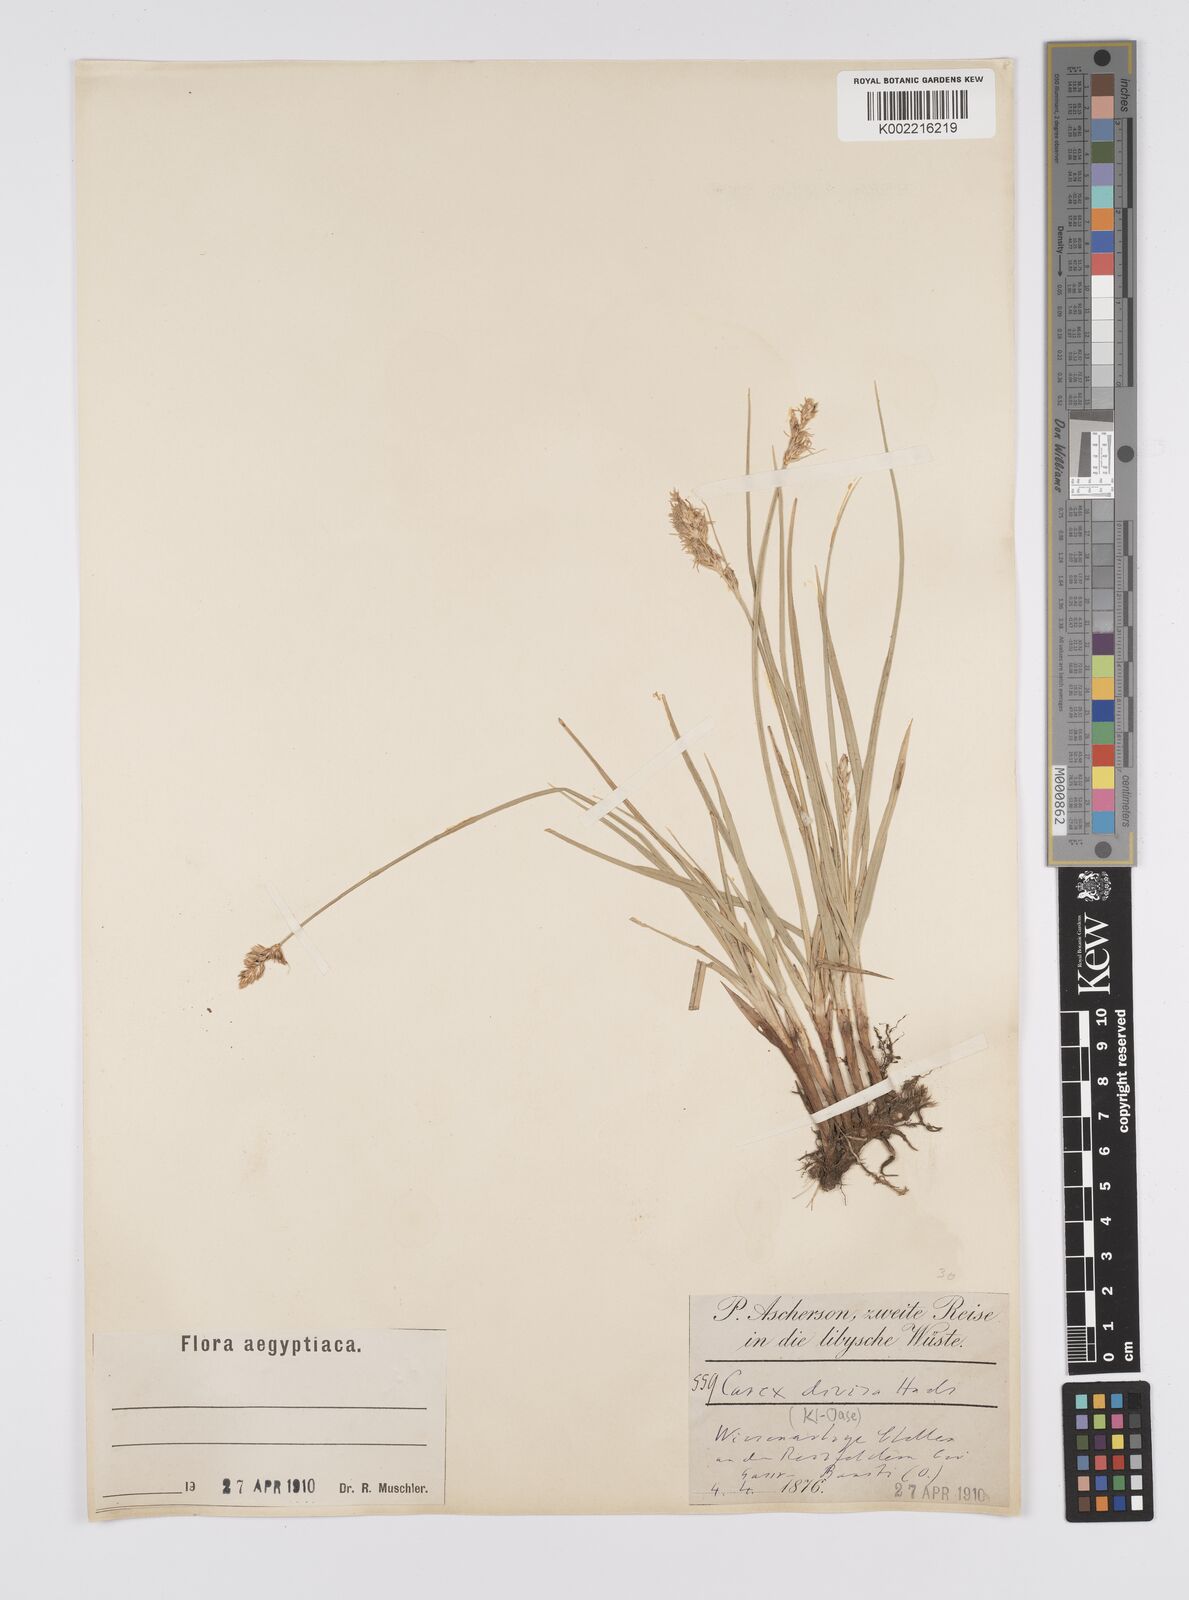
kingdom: Plantae
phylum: Tracheophyta
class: Liliopsida
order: Poales
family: Cyperaceae
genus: Carex
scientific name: Carex divisa
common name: Divided sedge
